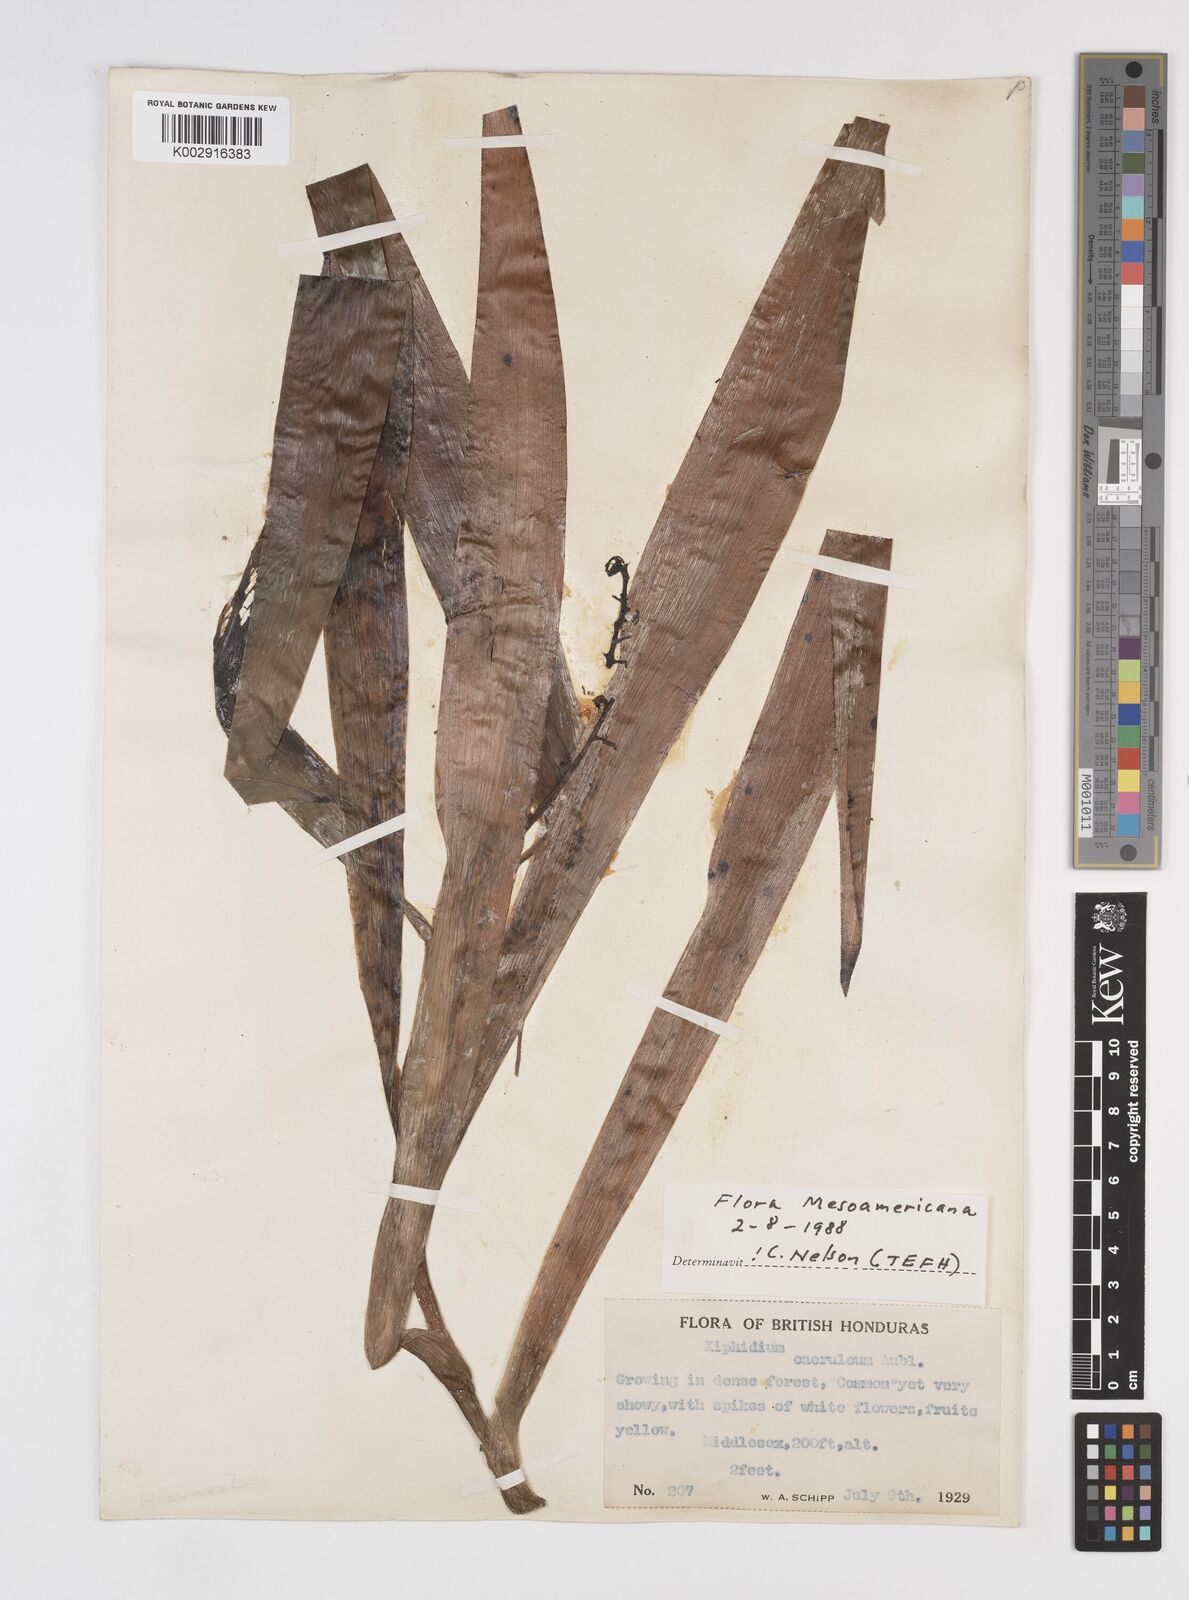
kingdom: Plantae
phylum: Tracheophyta
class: Liliopsida
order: Commelinales
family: Haemodoraceae
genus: Xiphidium
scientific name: Xiphidium caeruleum
